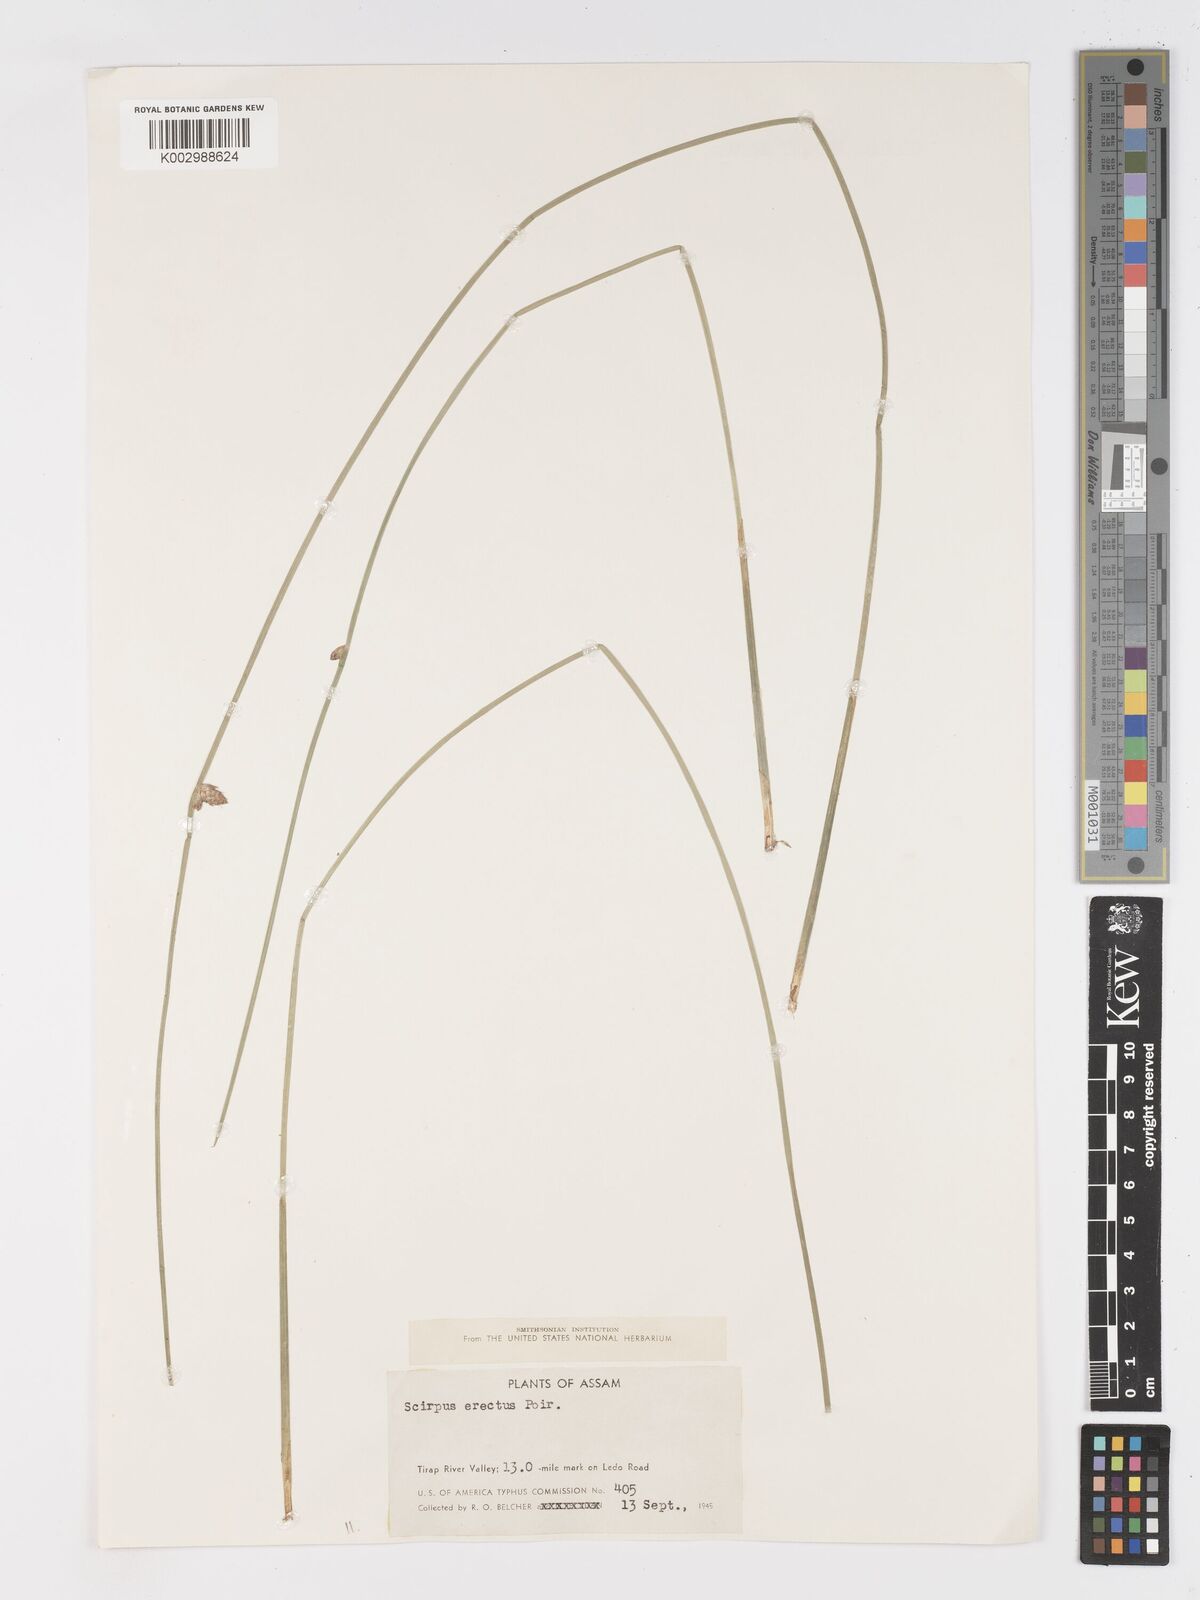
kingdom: Plantae
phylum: Tracheophyta
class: Liliopsida
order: Poales
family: Cyperaceae
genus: Schoenoplectiella
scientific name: Schoenoplectiella juncoides
